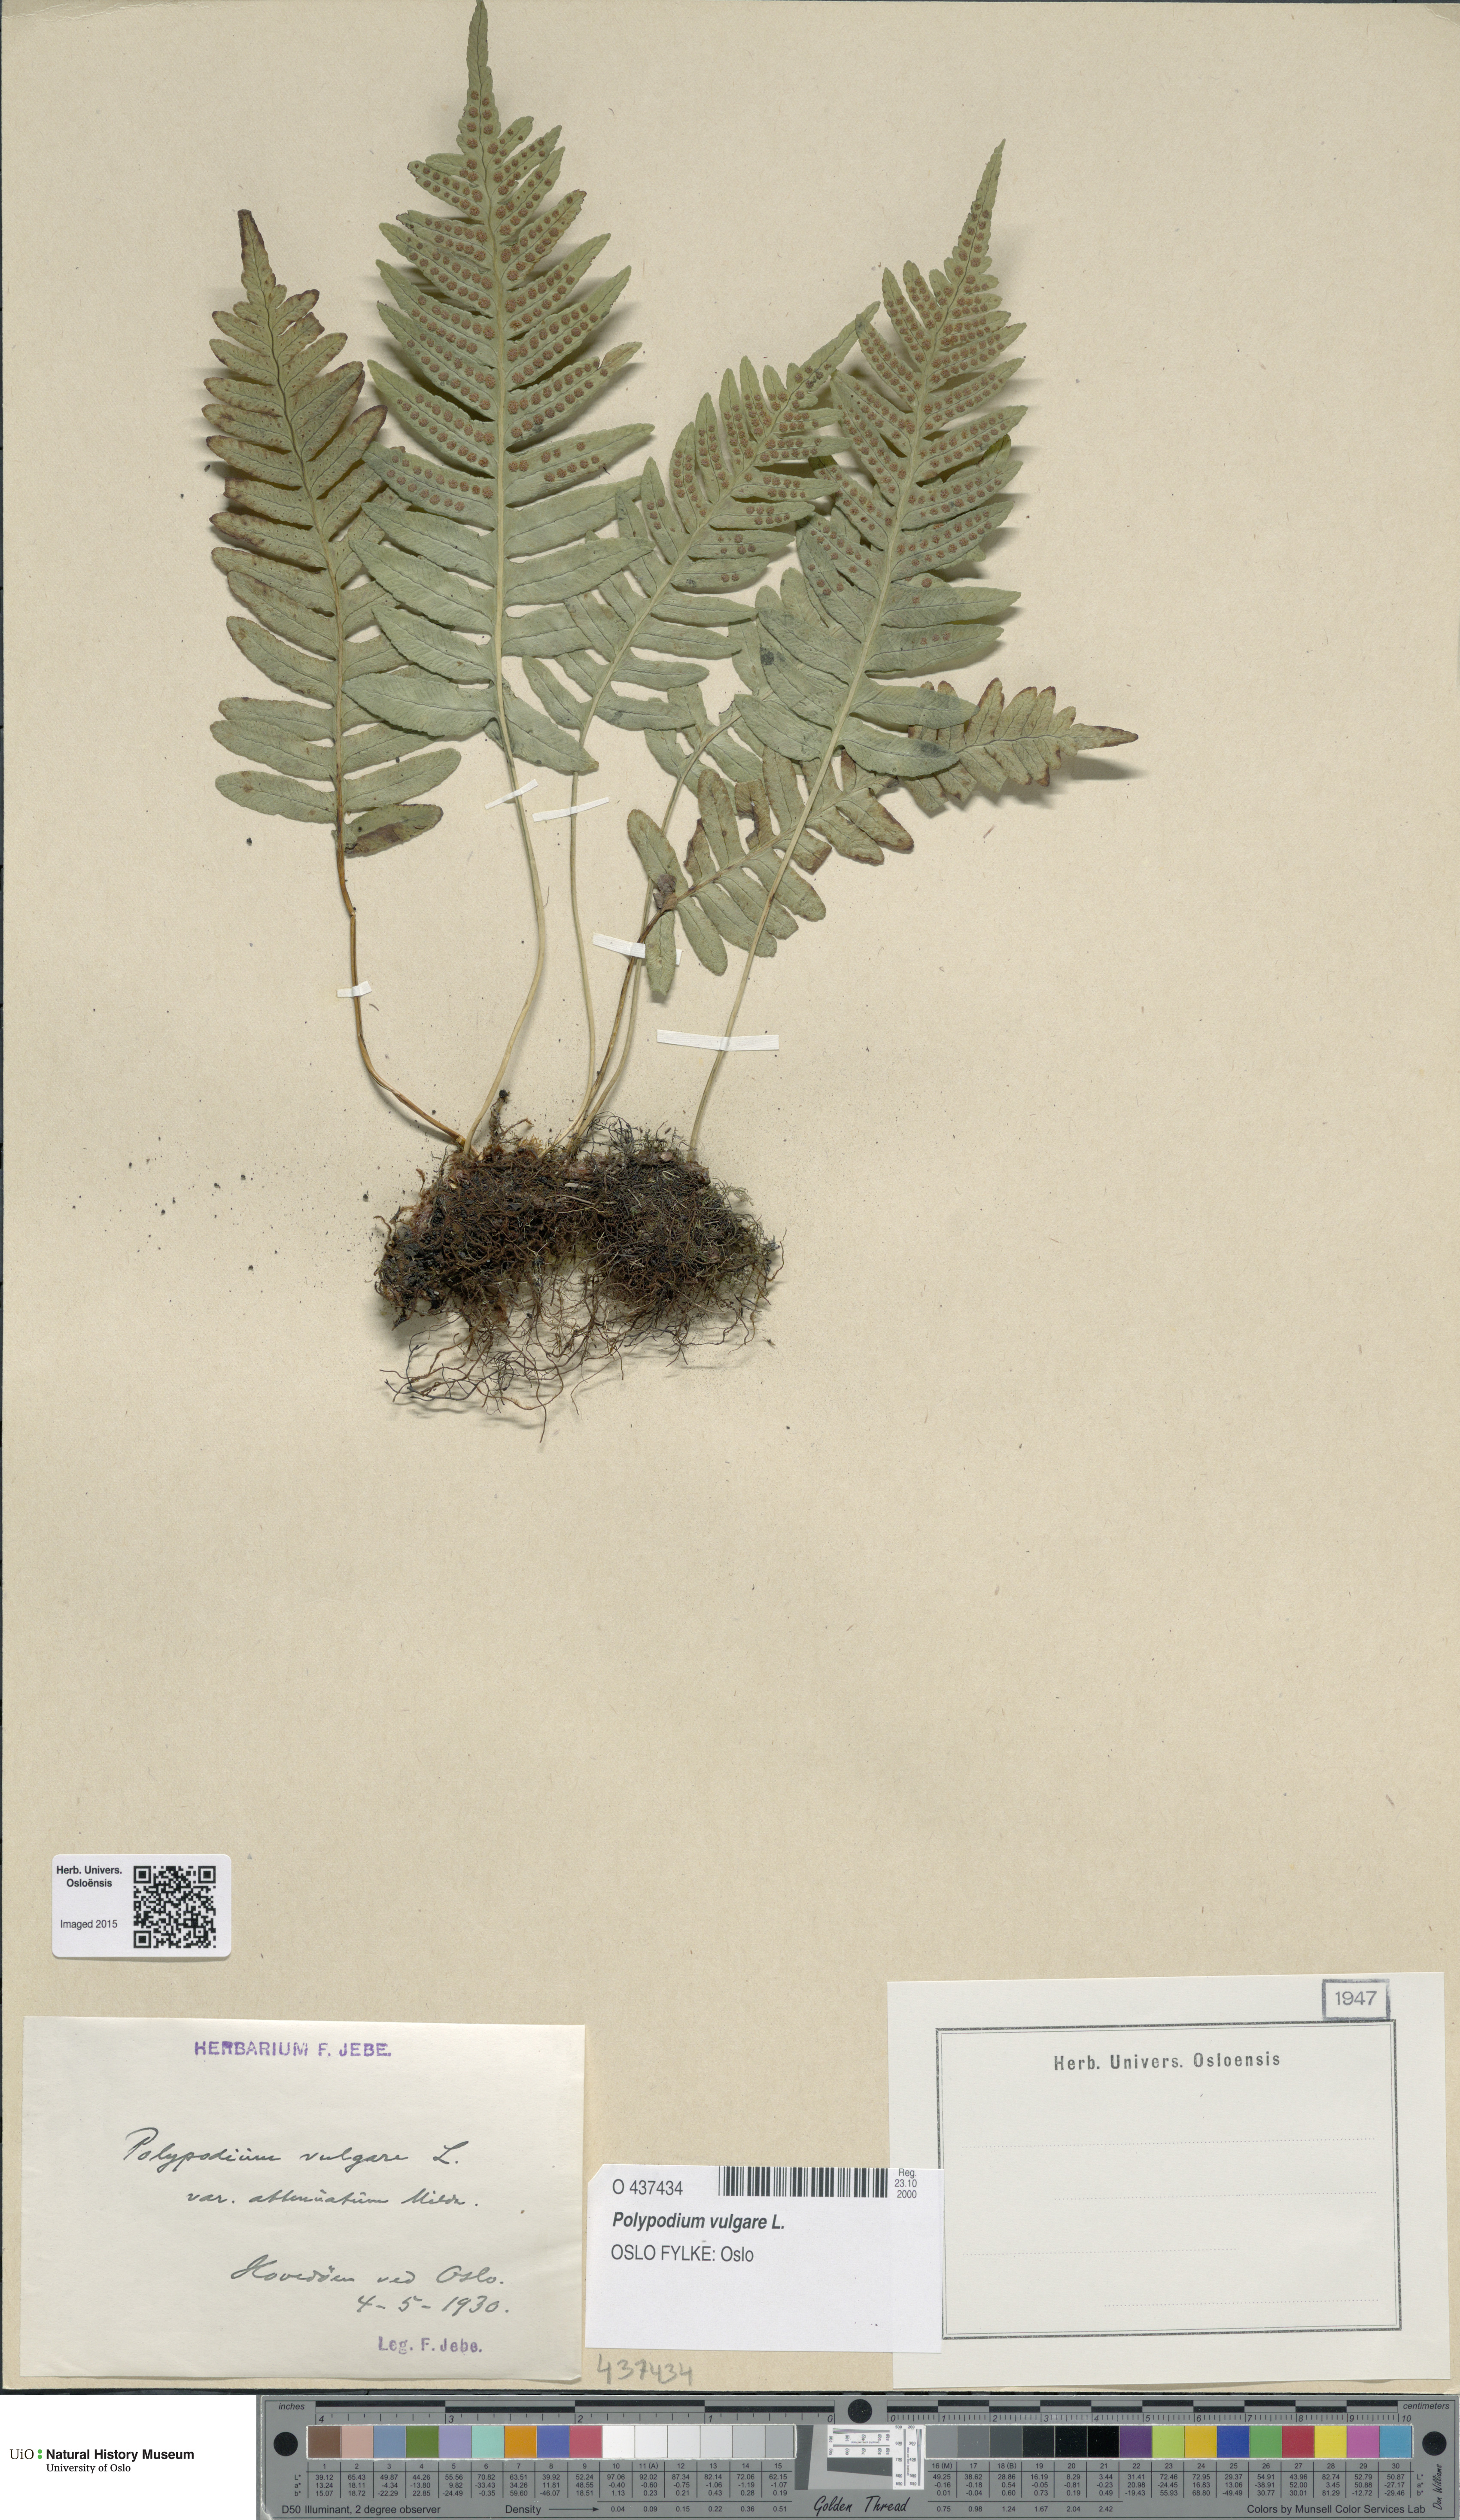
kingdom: Plantae
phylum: Tracheophyta
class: Polypodiopsida
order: Polypodiales
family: Polypodiaceae
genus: Polypodium
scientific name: Polypodium vulgare
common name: Common polypody
